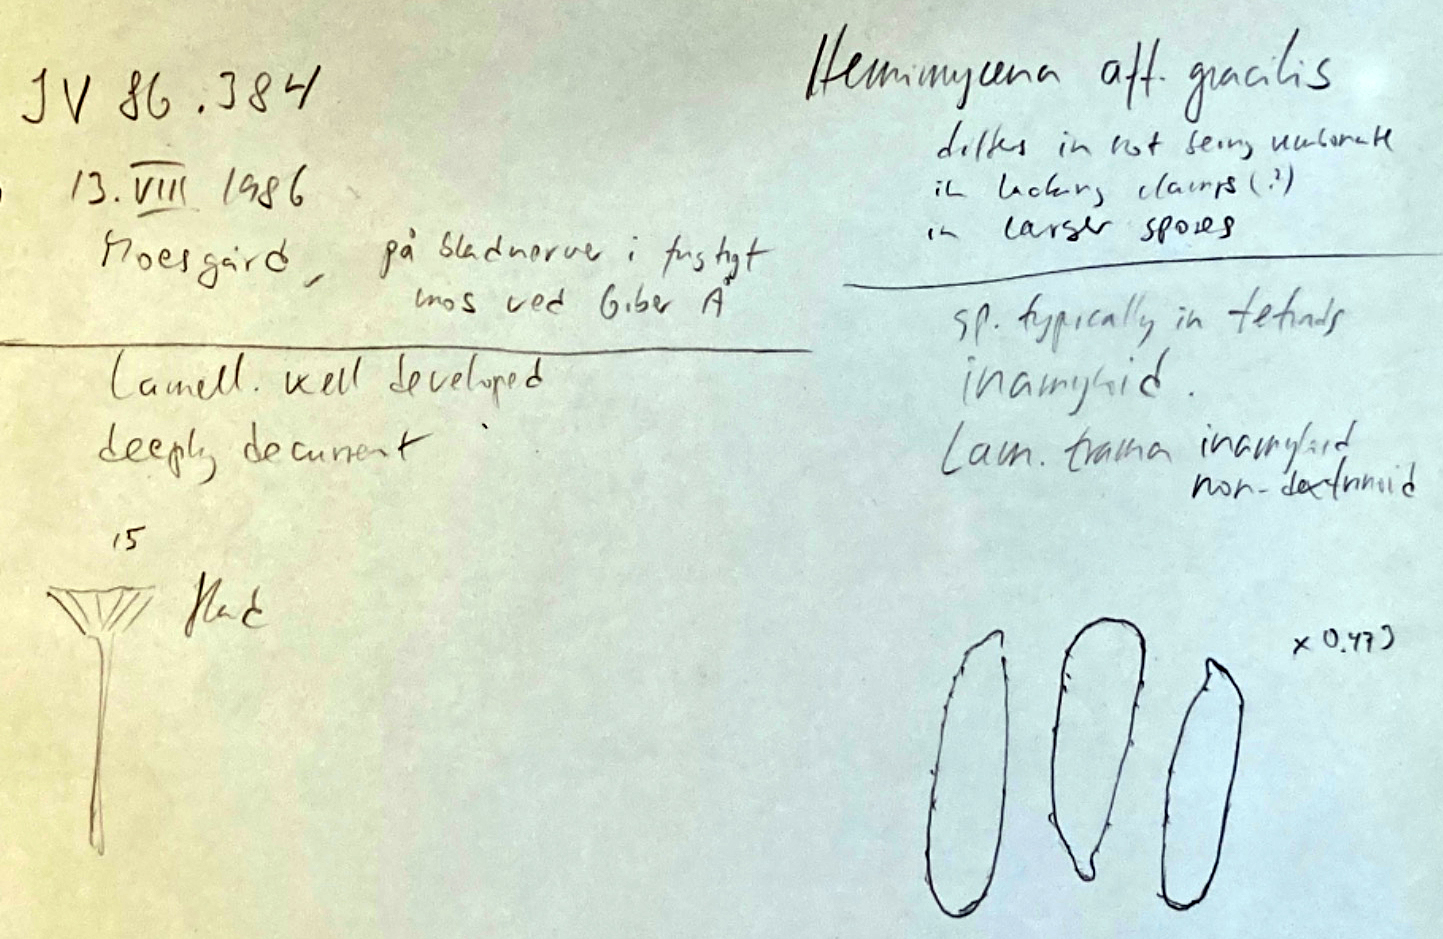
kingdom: Fungi
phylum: Basidiomycota
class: Agaricomycetes
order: Agaricales
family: Mycenaceae
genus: Hemimycena
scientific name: Hemimycena
